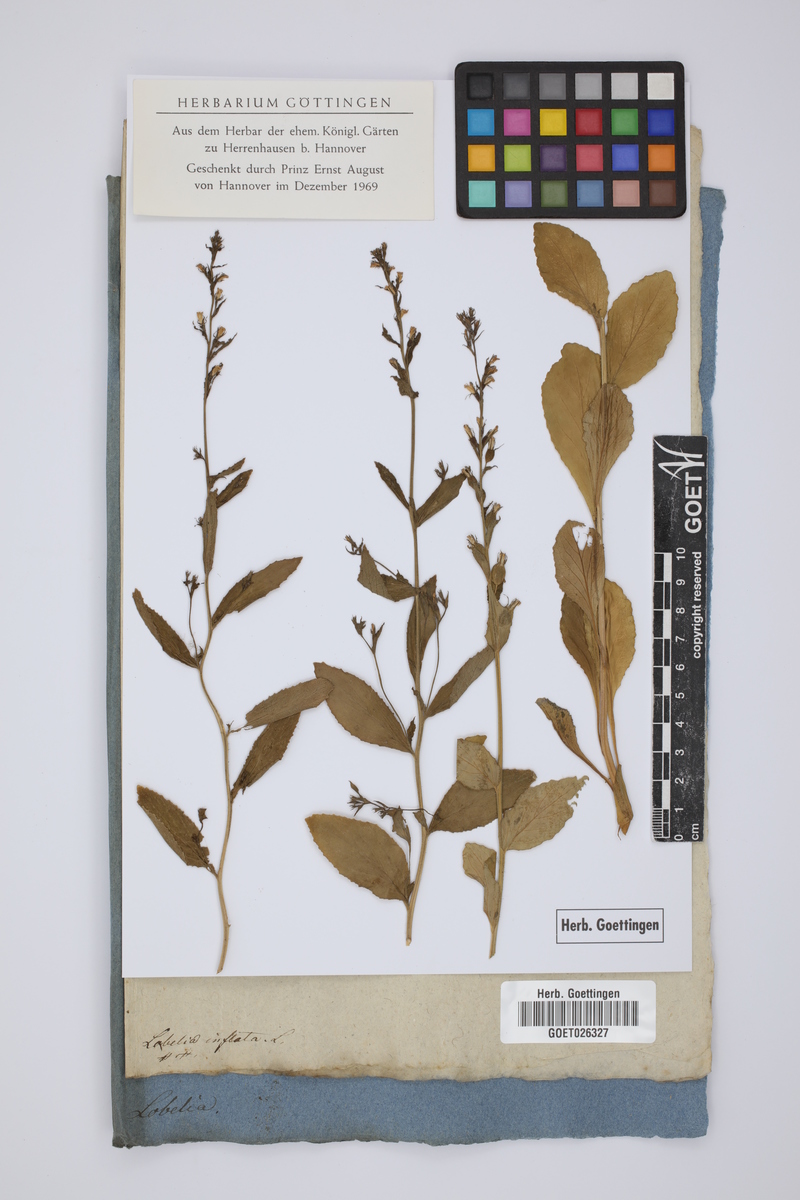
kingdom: Plantae
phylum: Tracheophyta
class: Magnoliopsida
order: Asterales
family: Campanulaceae
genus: Lobelia
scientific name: Lobelia inflata
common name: Indian tobacco
